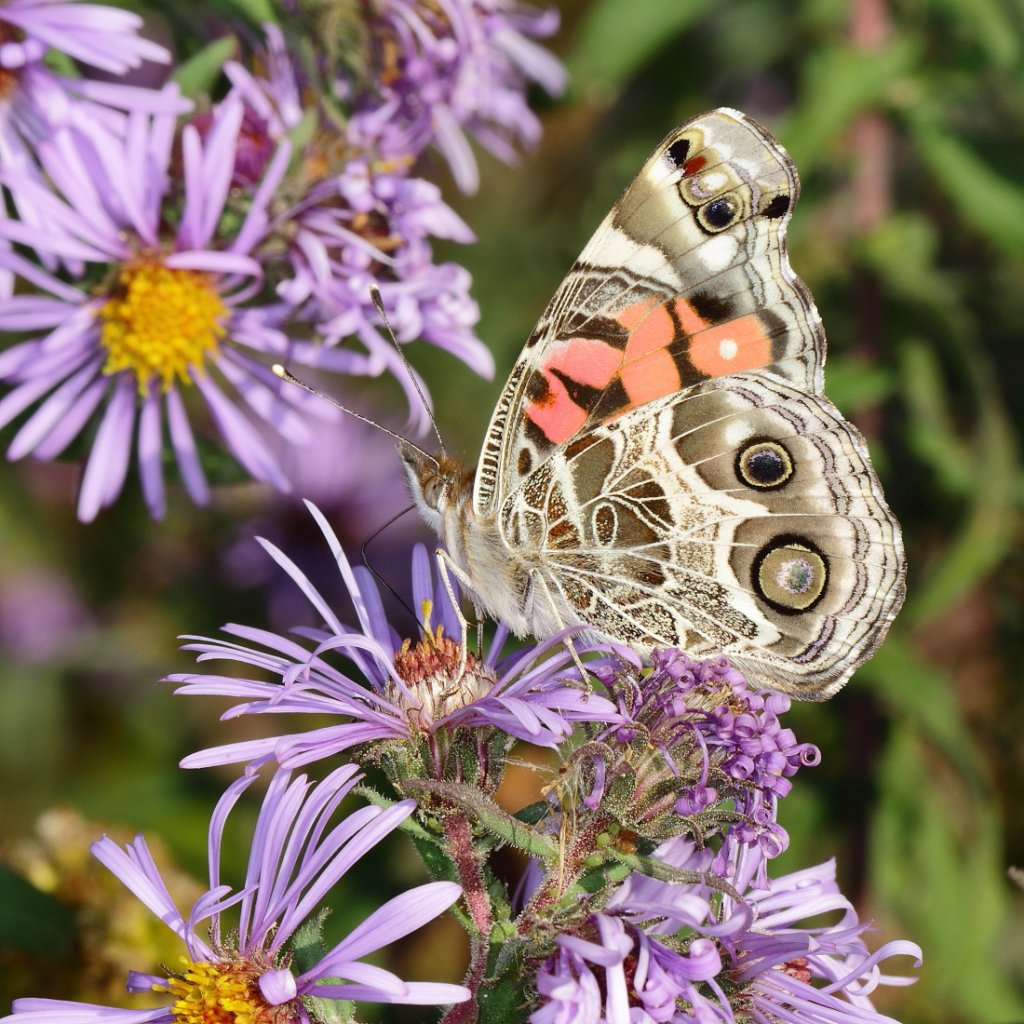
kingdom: Animalia
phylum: Arthropoda
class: Insecta
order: Lepidoptera
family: Nymphalidae
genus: Vanessa
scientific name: Vanessa virginiensis
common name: American Lady
